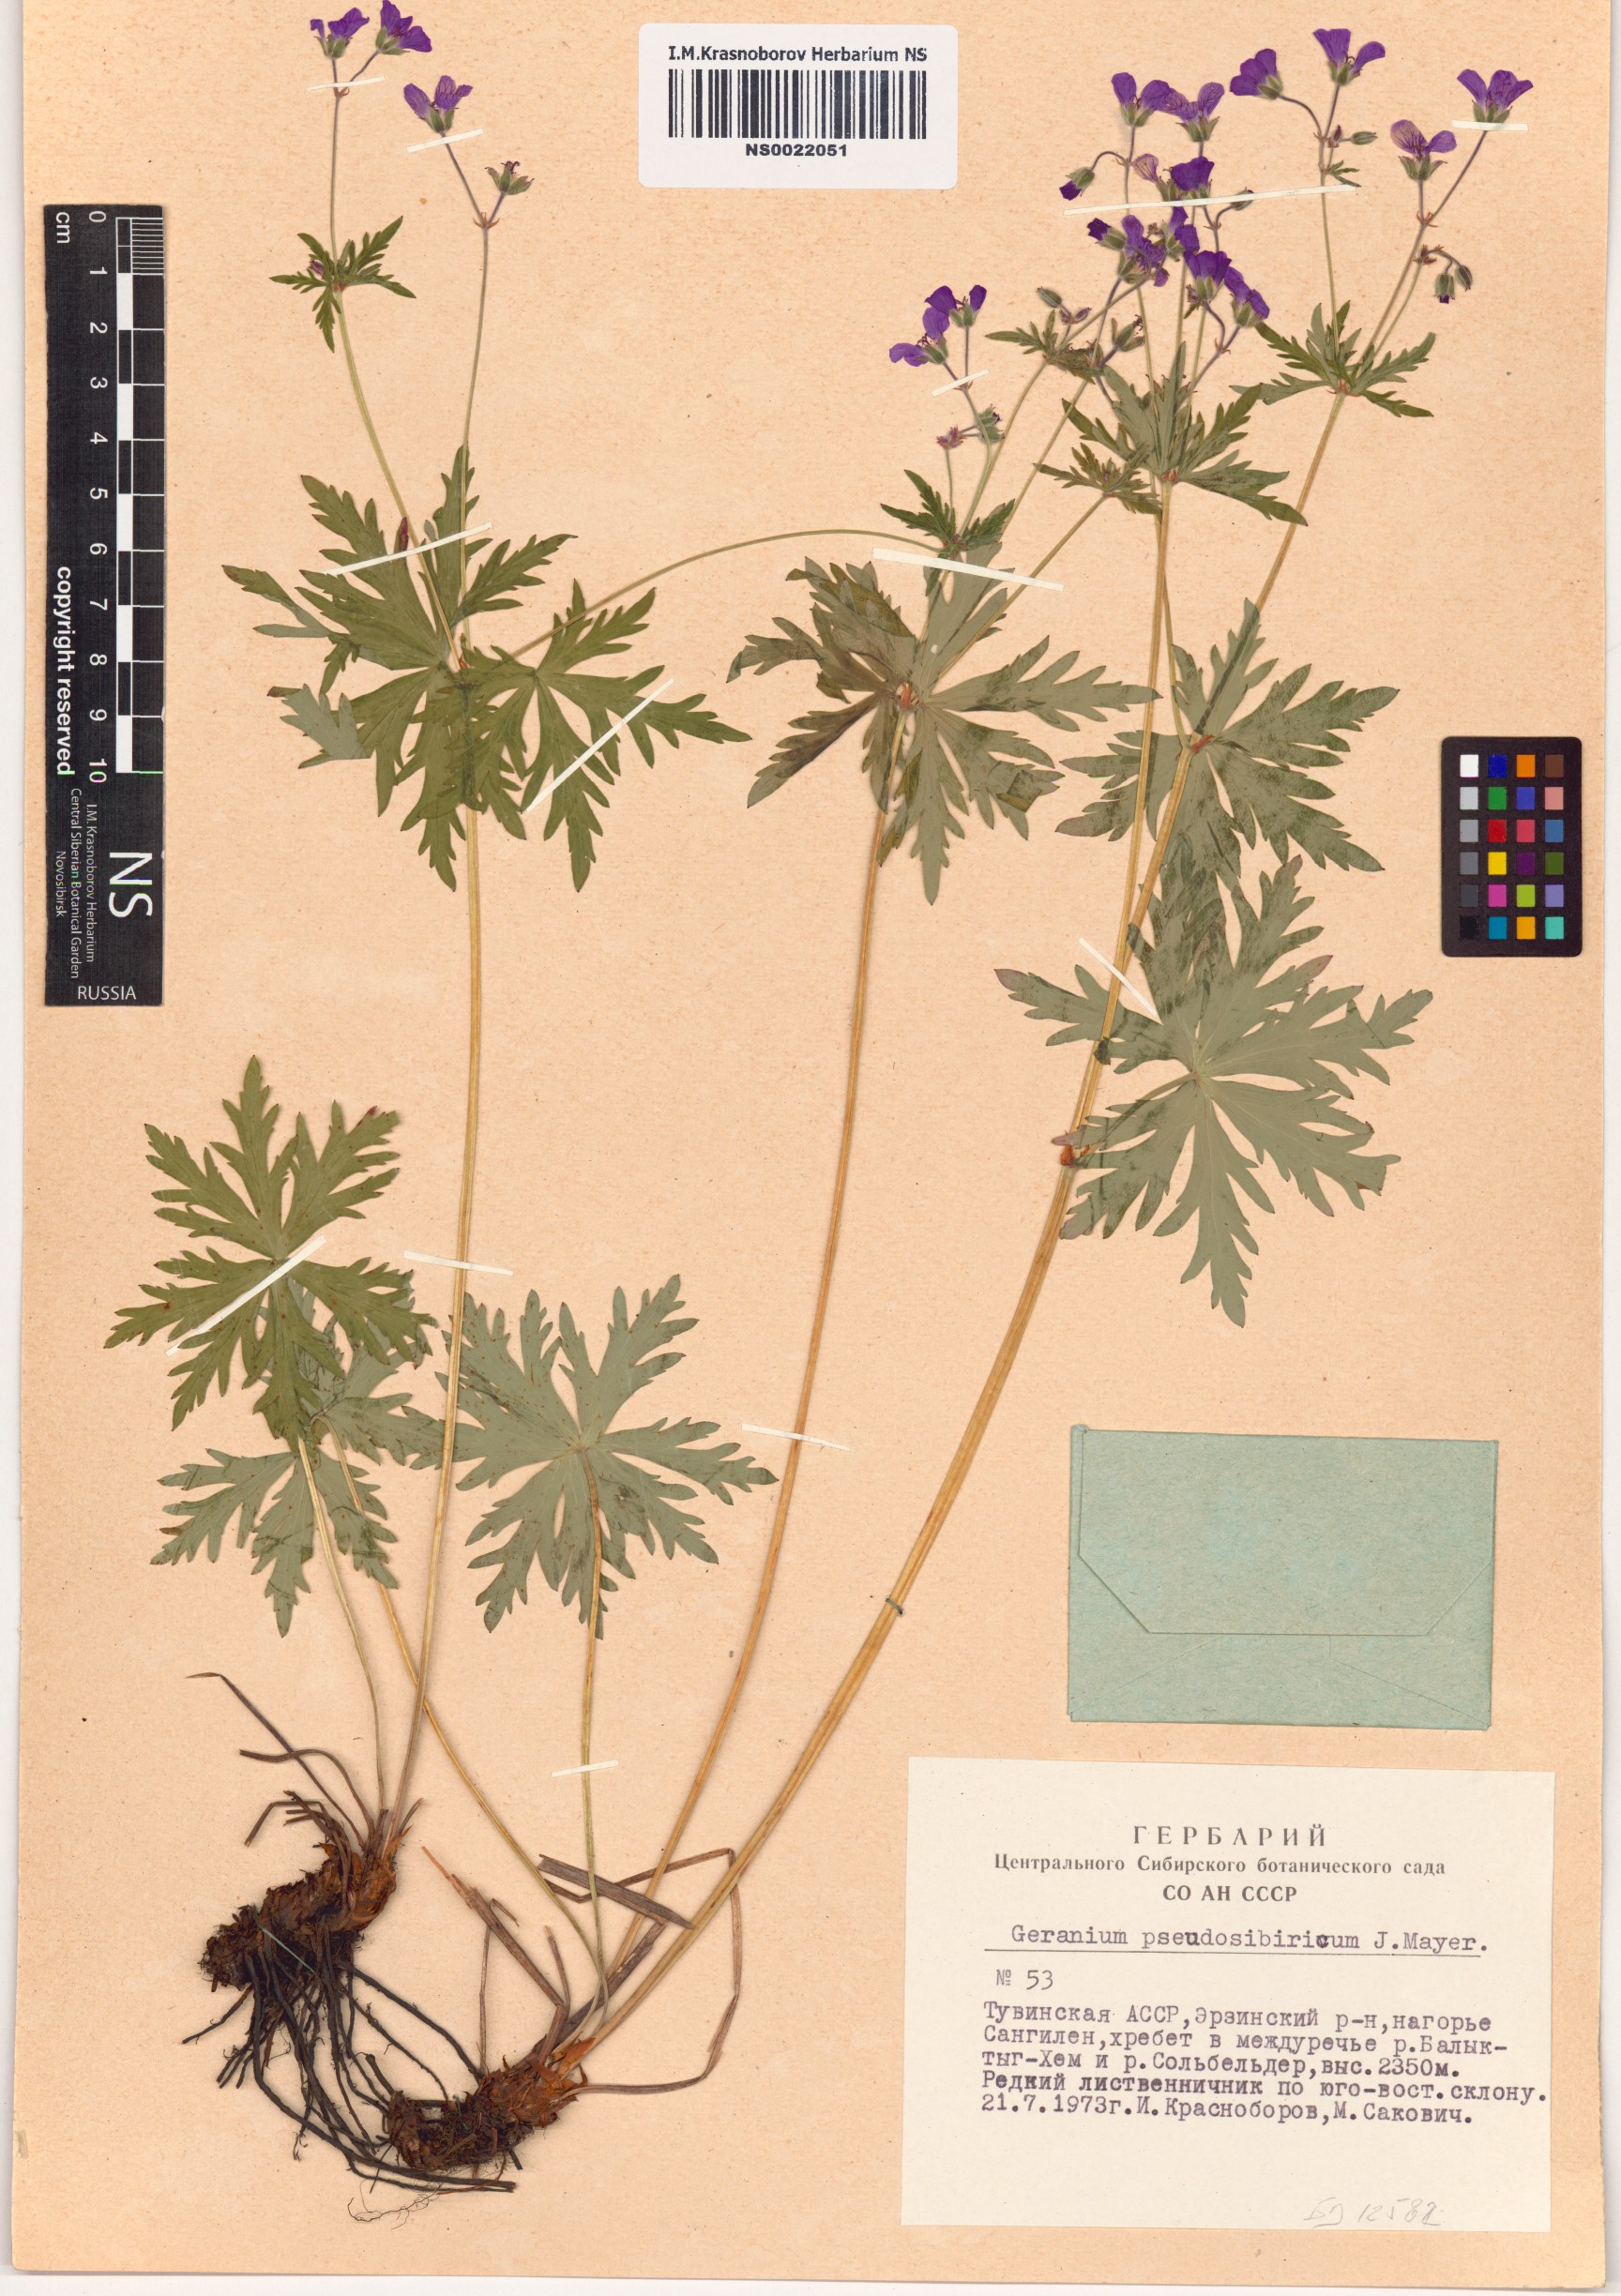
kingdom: Plantae
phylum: Tracheophyta
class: Magnoliopsida
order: Geraniales
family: Geraniaceae
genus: Geranium
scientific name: Geranium pseudosibiricum
